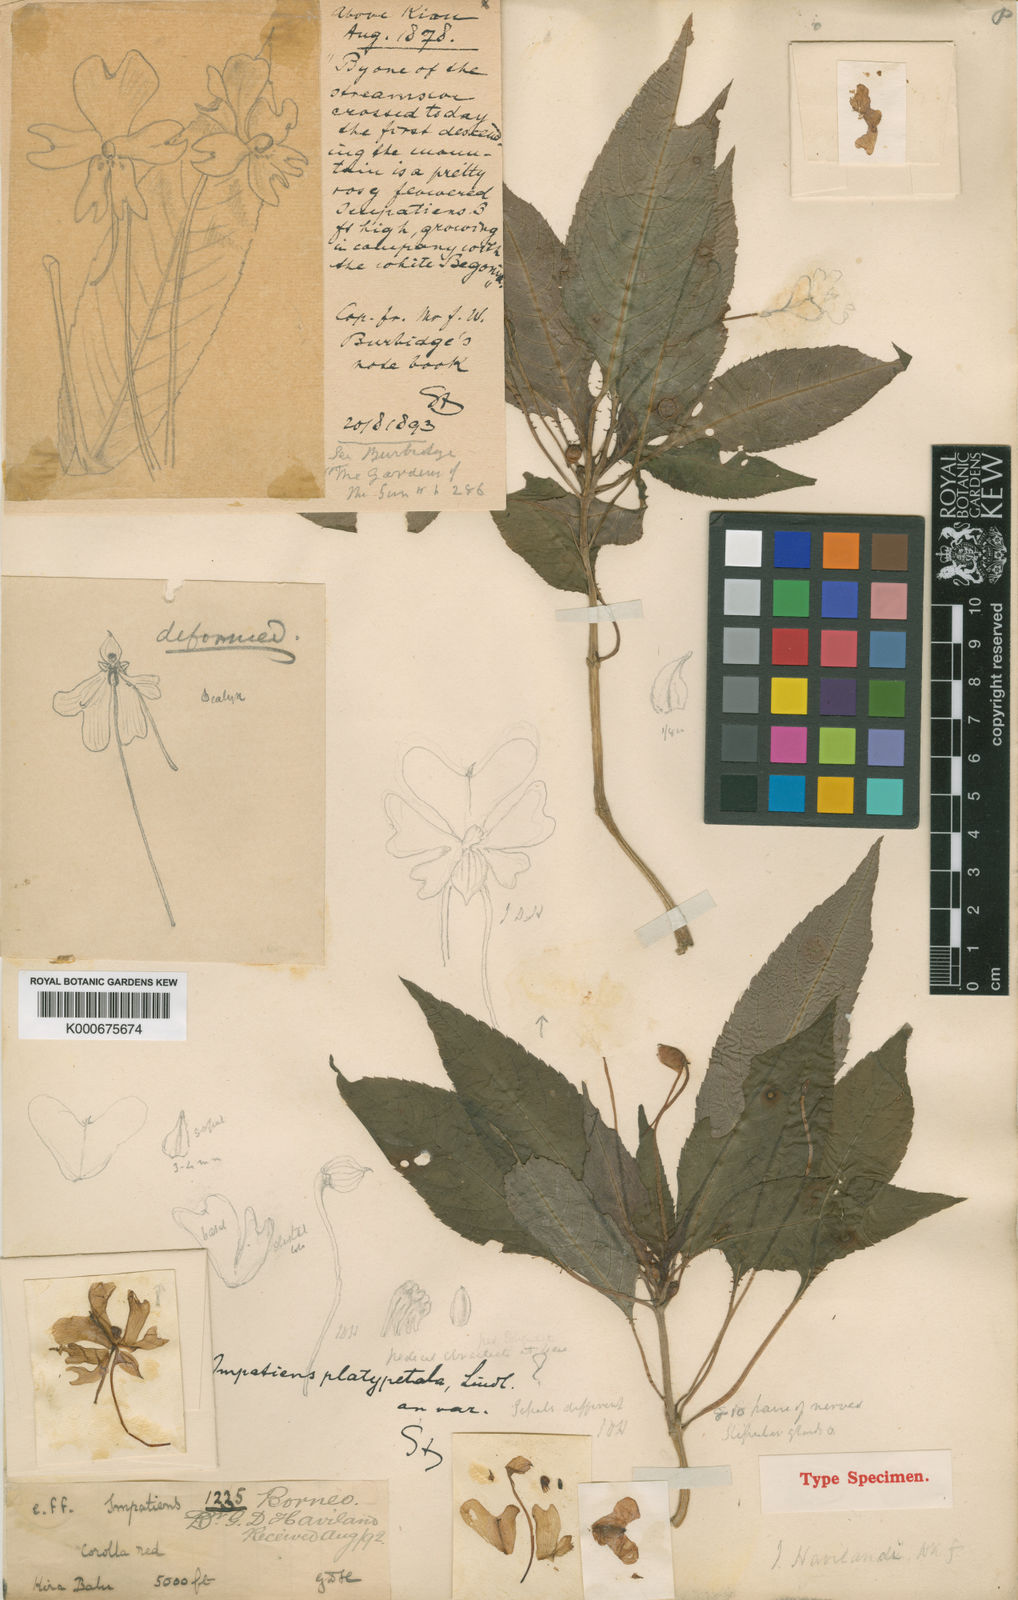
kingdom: Plantae
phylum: Tracheophyta
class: Magnoliopsida
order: Ericales
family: Balsaminaceae
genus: Impatiens
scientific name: Impatiens kinabaluensis
